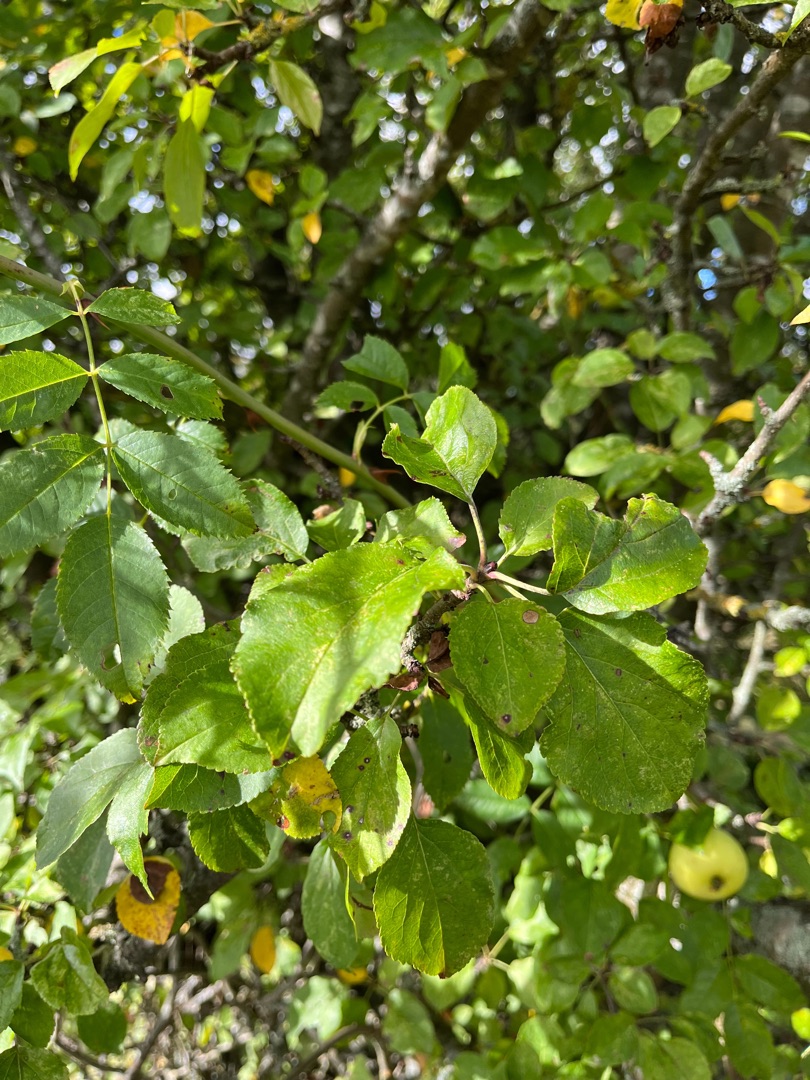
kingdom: Plantae
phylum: Tracheophyta
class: Magnoliopsida
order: Rosales
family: Rosaceae
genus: Malus
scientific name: Malus sylvestris
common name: Skov-æble
